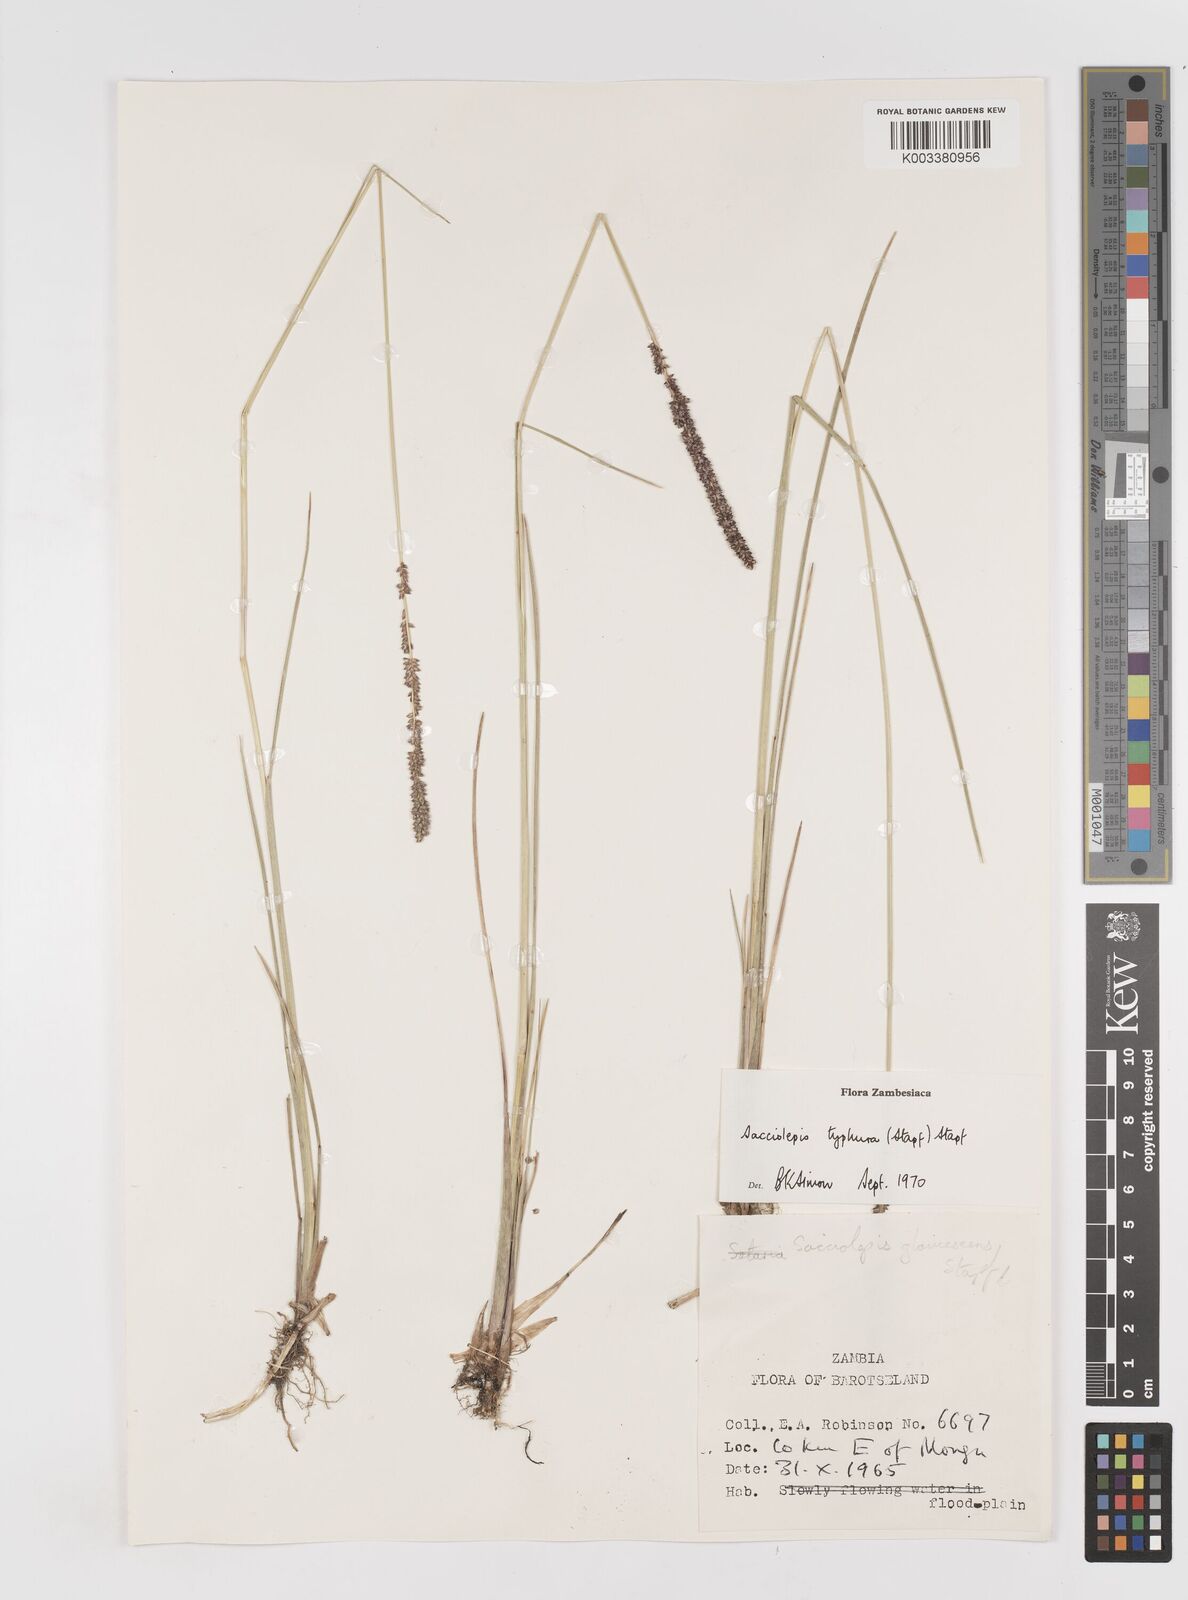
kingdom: Plantae
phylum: Tracheophyta
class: Liliopsida
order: Poales
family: Poaceae
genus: Sacciolepis
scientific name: Sacciolepis typhura
